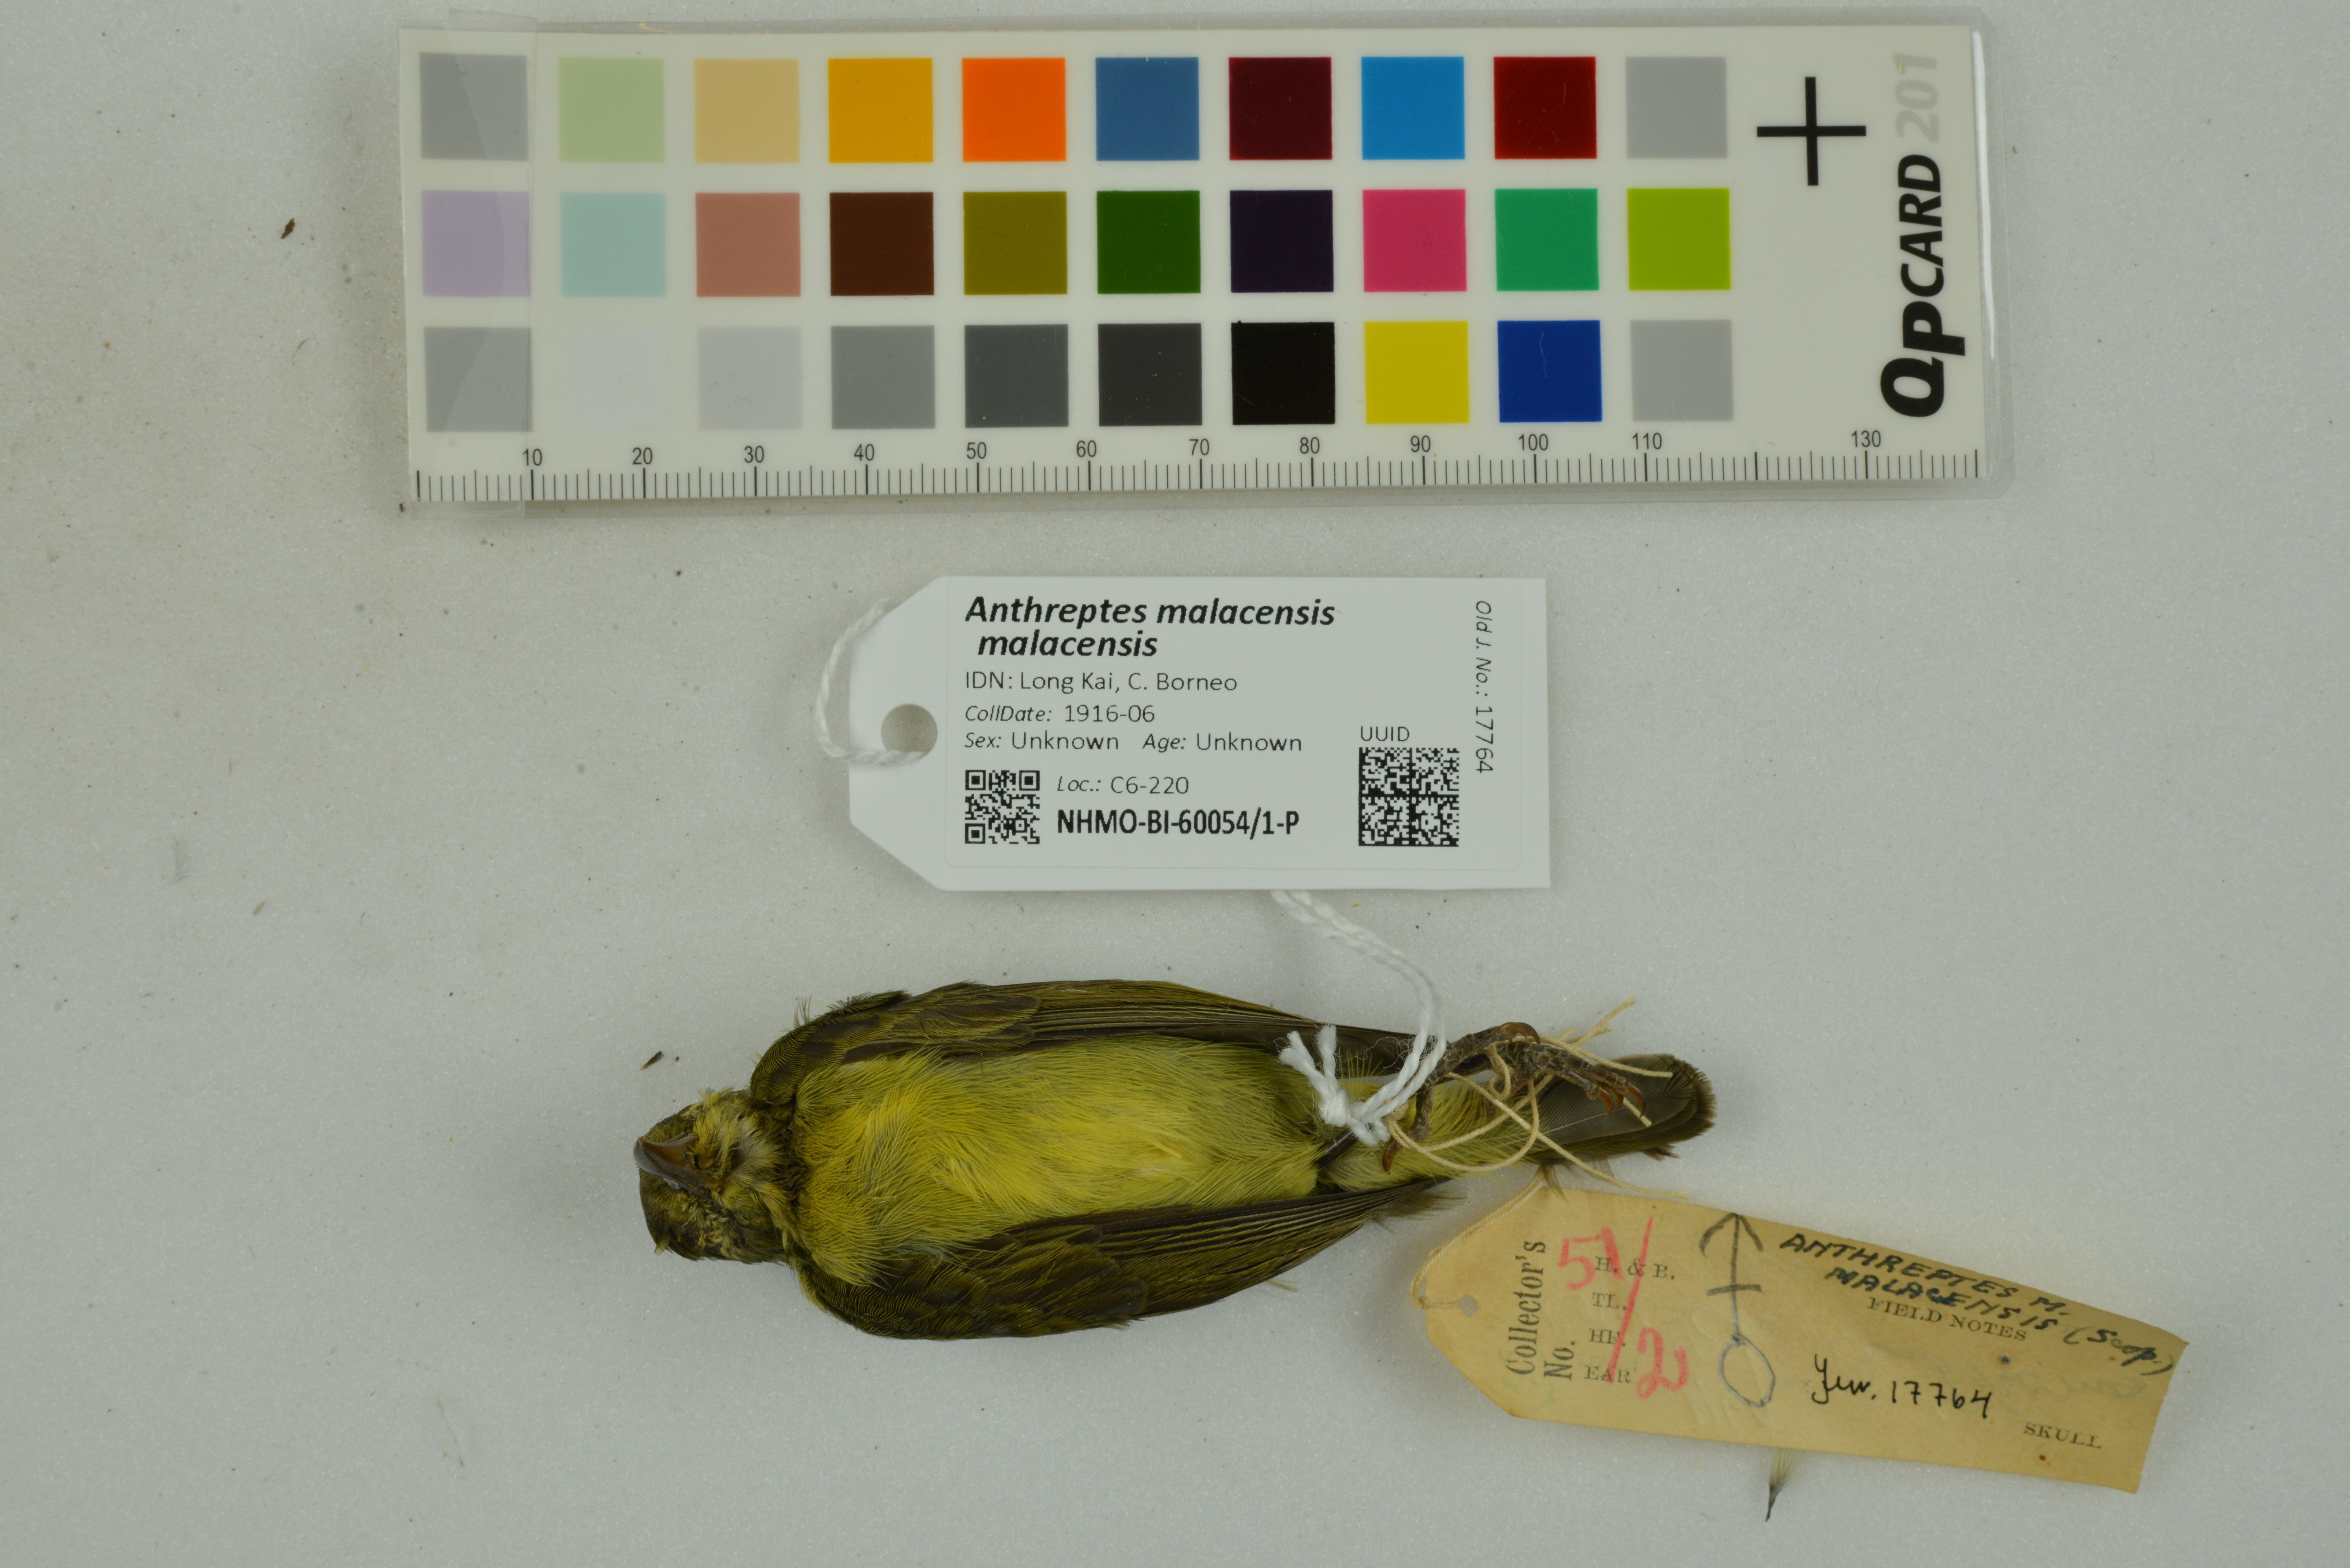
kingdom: Animalia
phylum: Chordata
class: Aves
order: Passeriformes
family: Nectariniidae
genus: Anthreptes
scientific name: Anthreptes malacensis
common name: Brown-throated sunbird
